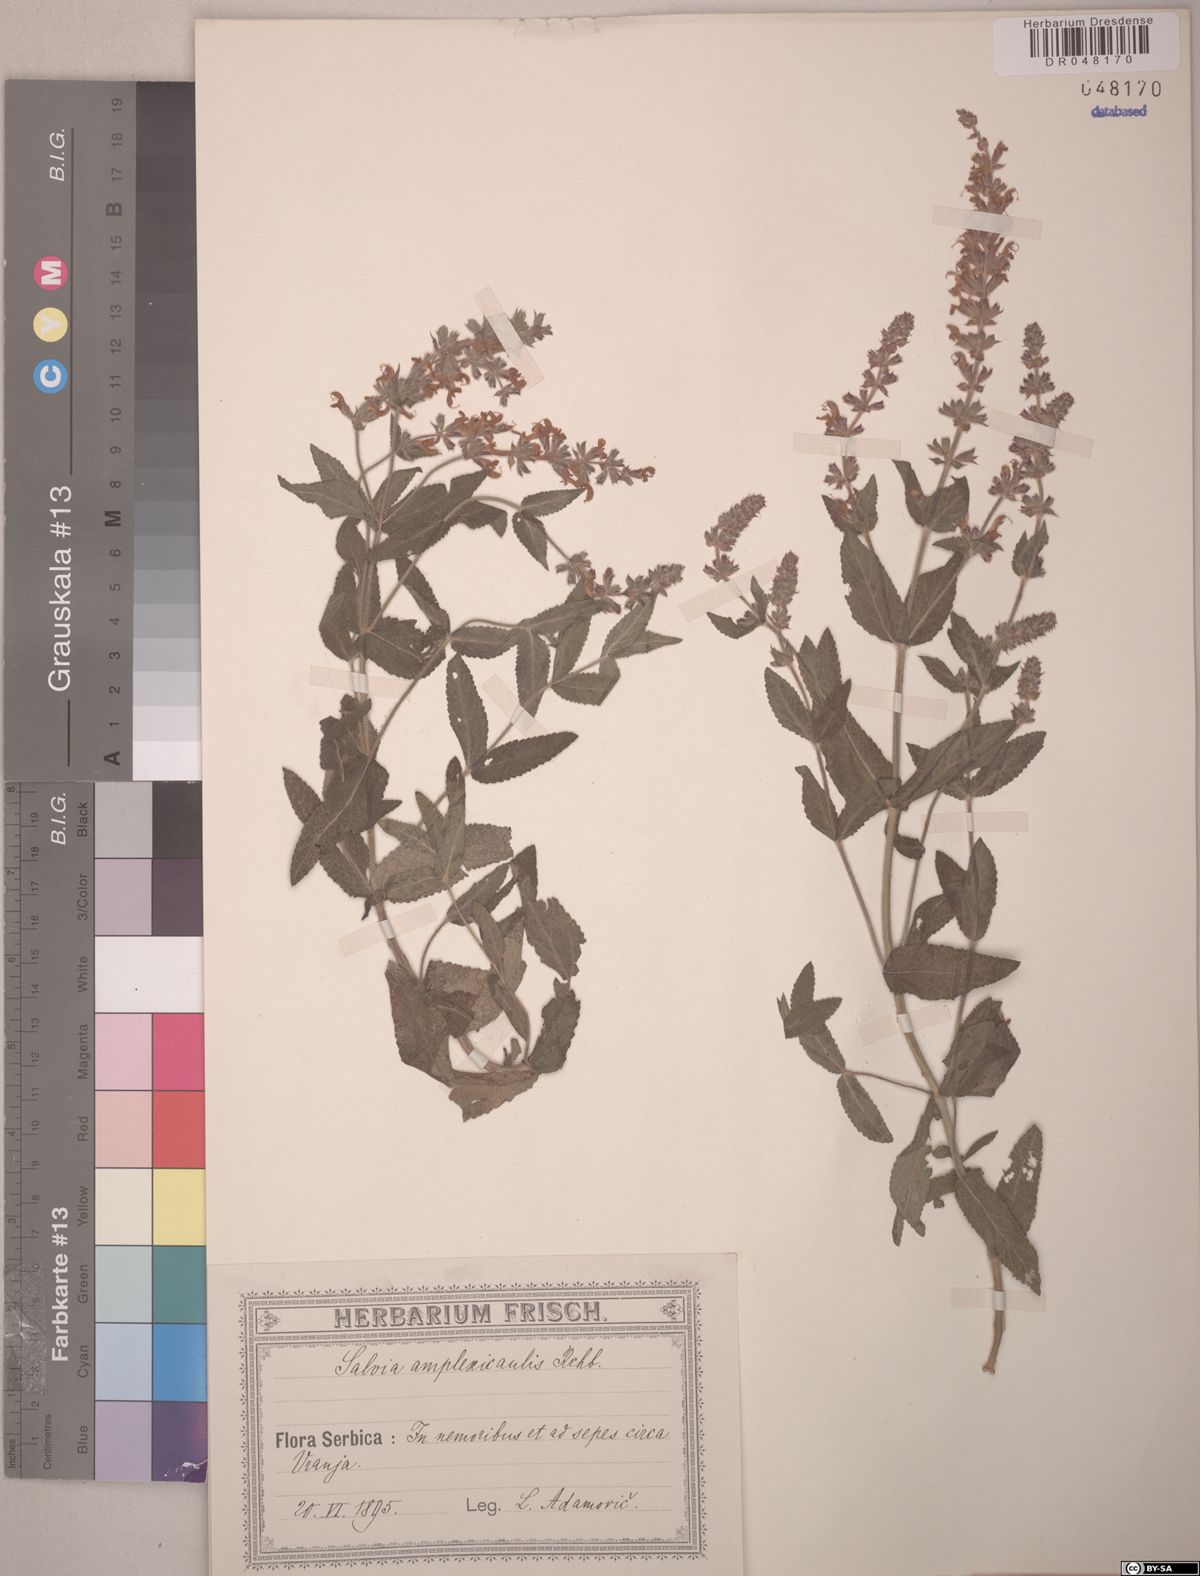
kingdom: Plantae
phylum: Tracheophyta
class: Magnoliopsida
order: Lamiales
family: Lamiaceae
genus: Salvia
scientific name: Salvia amplexicaulis
